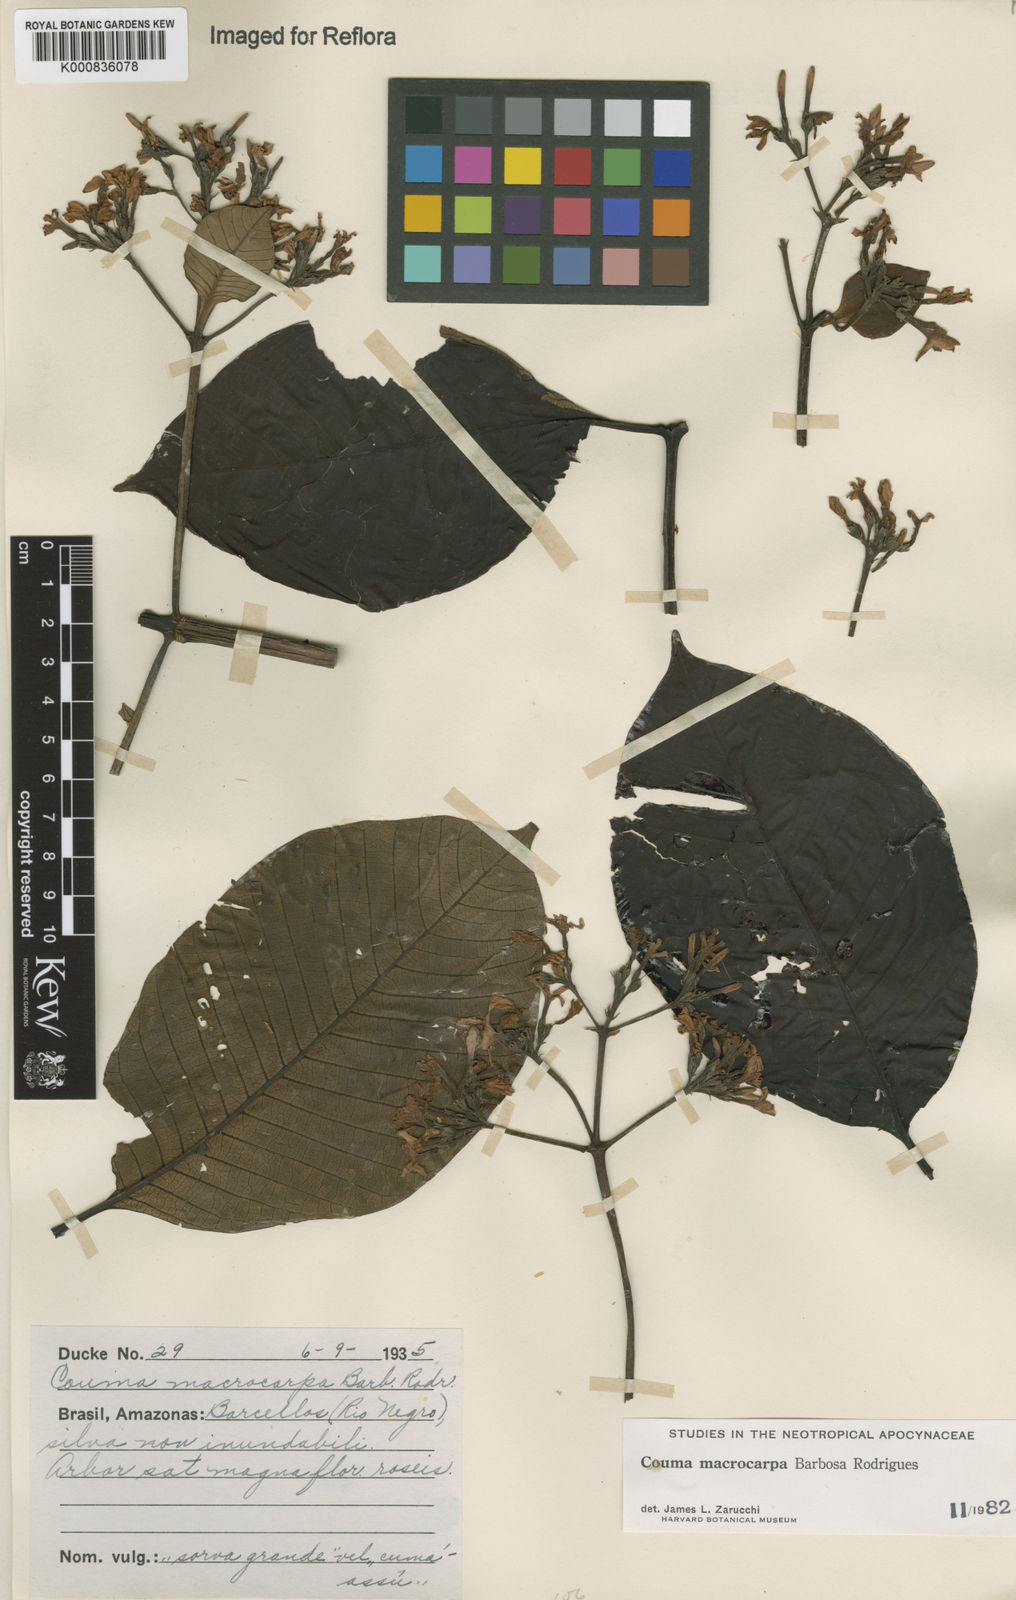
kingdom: Plantae
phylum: Tracheophyta
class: Magnoliopsida
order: Gentianales
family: Apocynaceae
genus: Couma
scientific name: Couma macrocarpa
